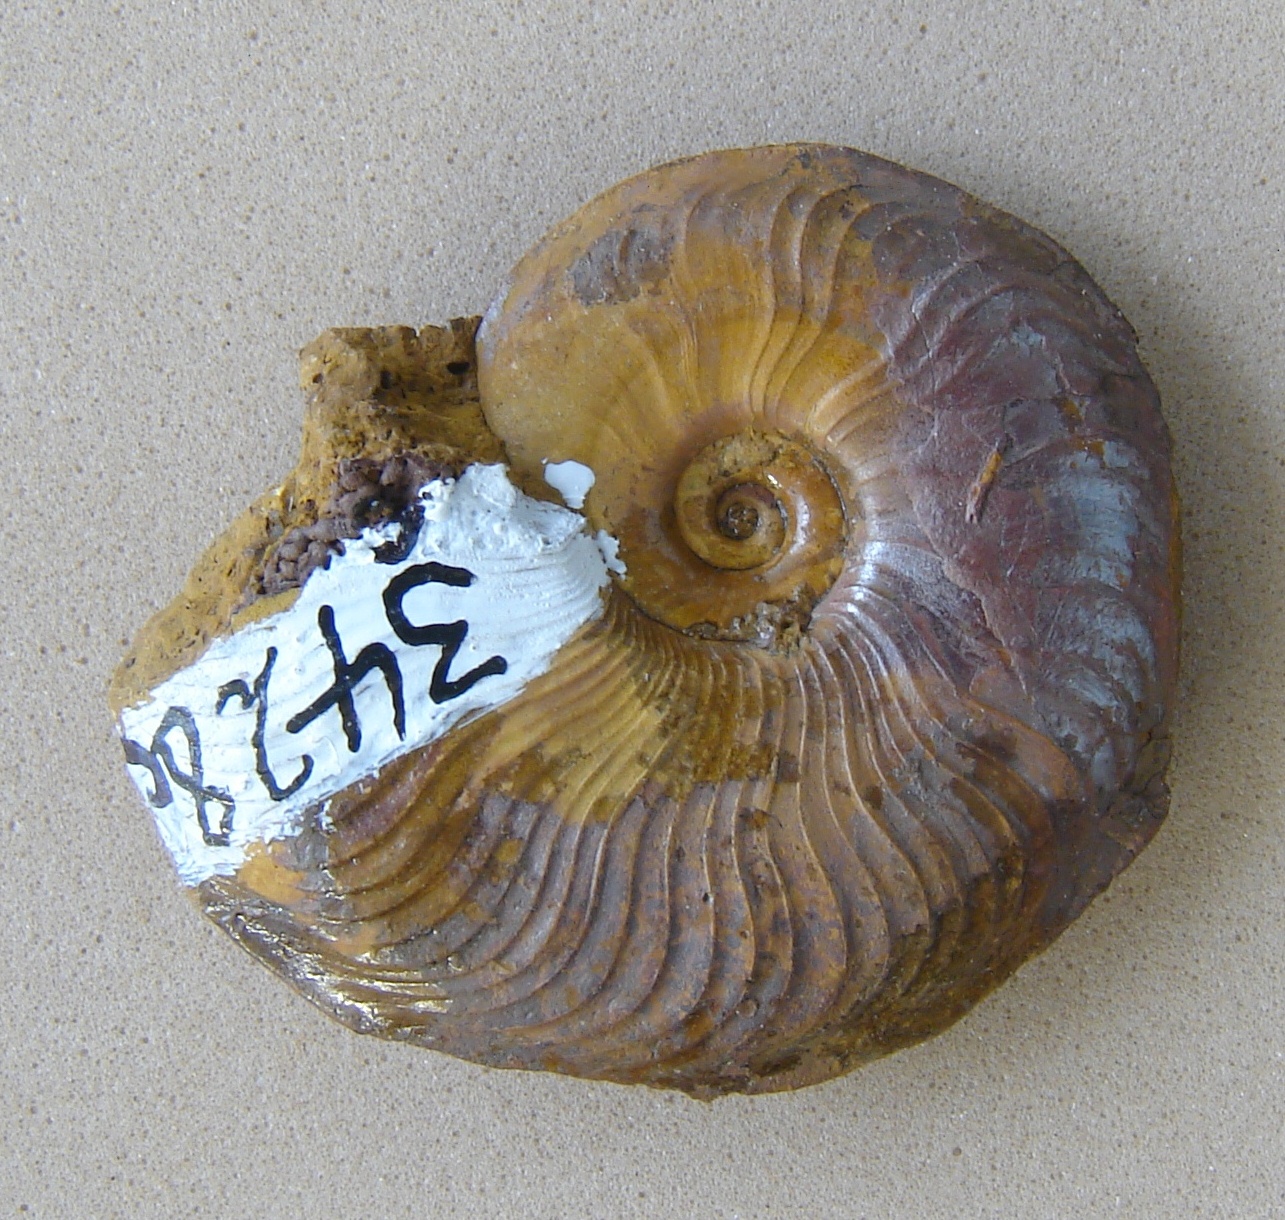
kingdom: Animalia
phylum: Mollusca
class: Cephalopoda
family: Hildoceratidae
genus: Pleydellia
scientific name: Pleydellia buckmani
